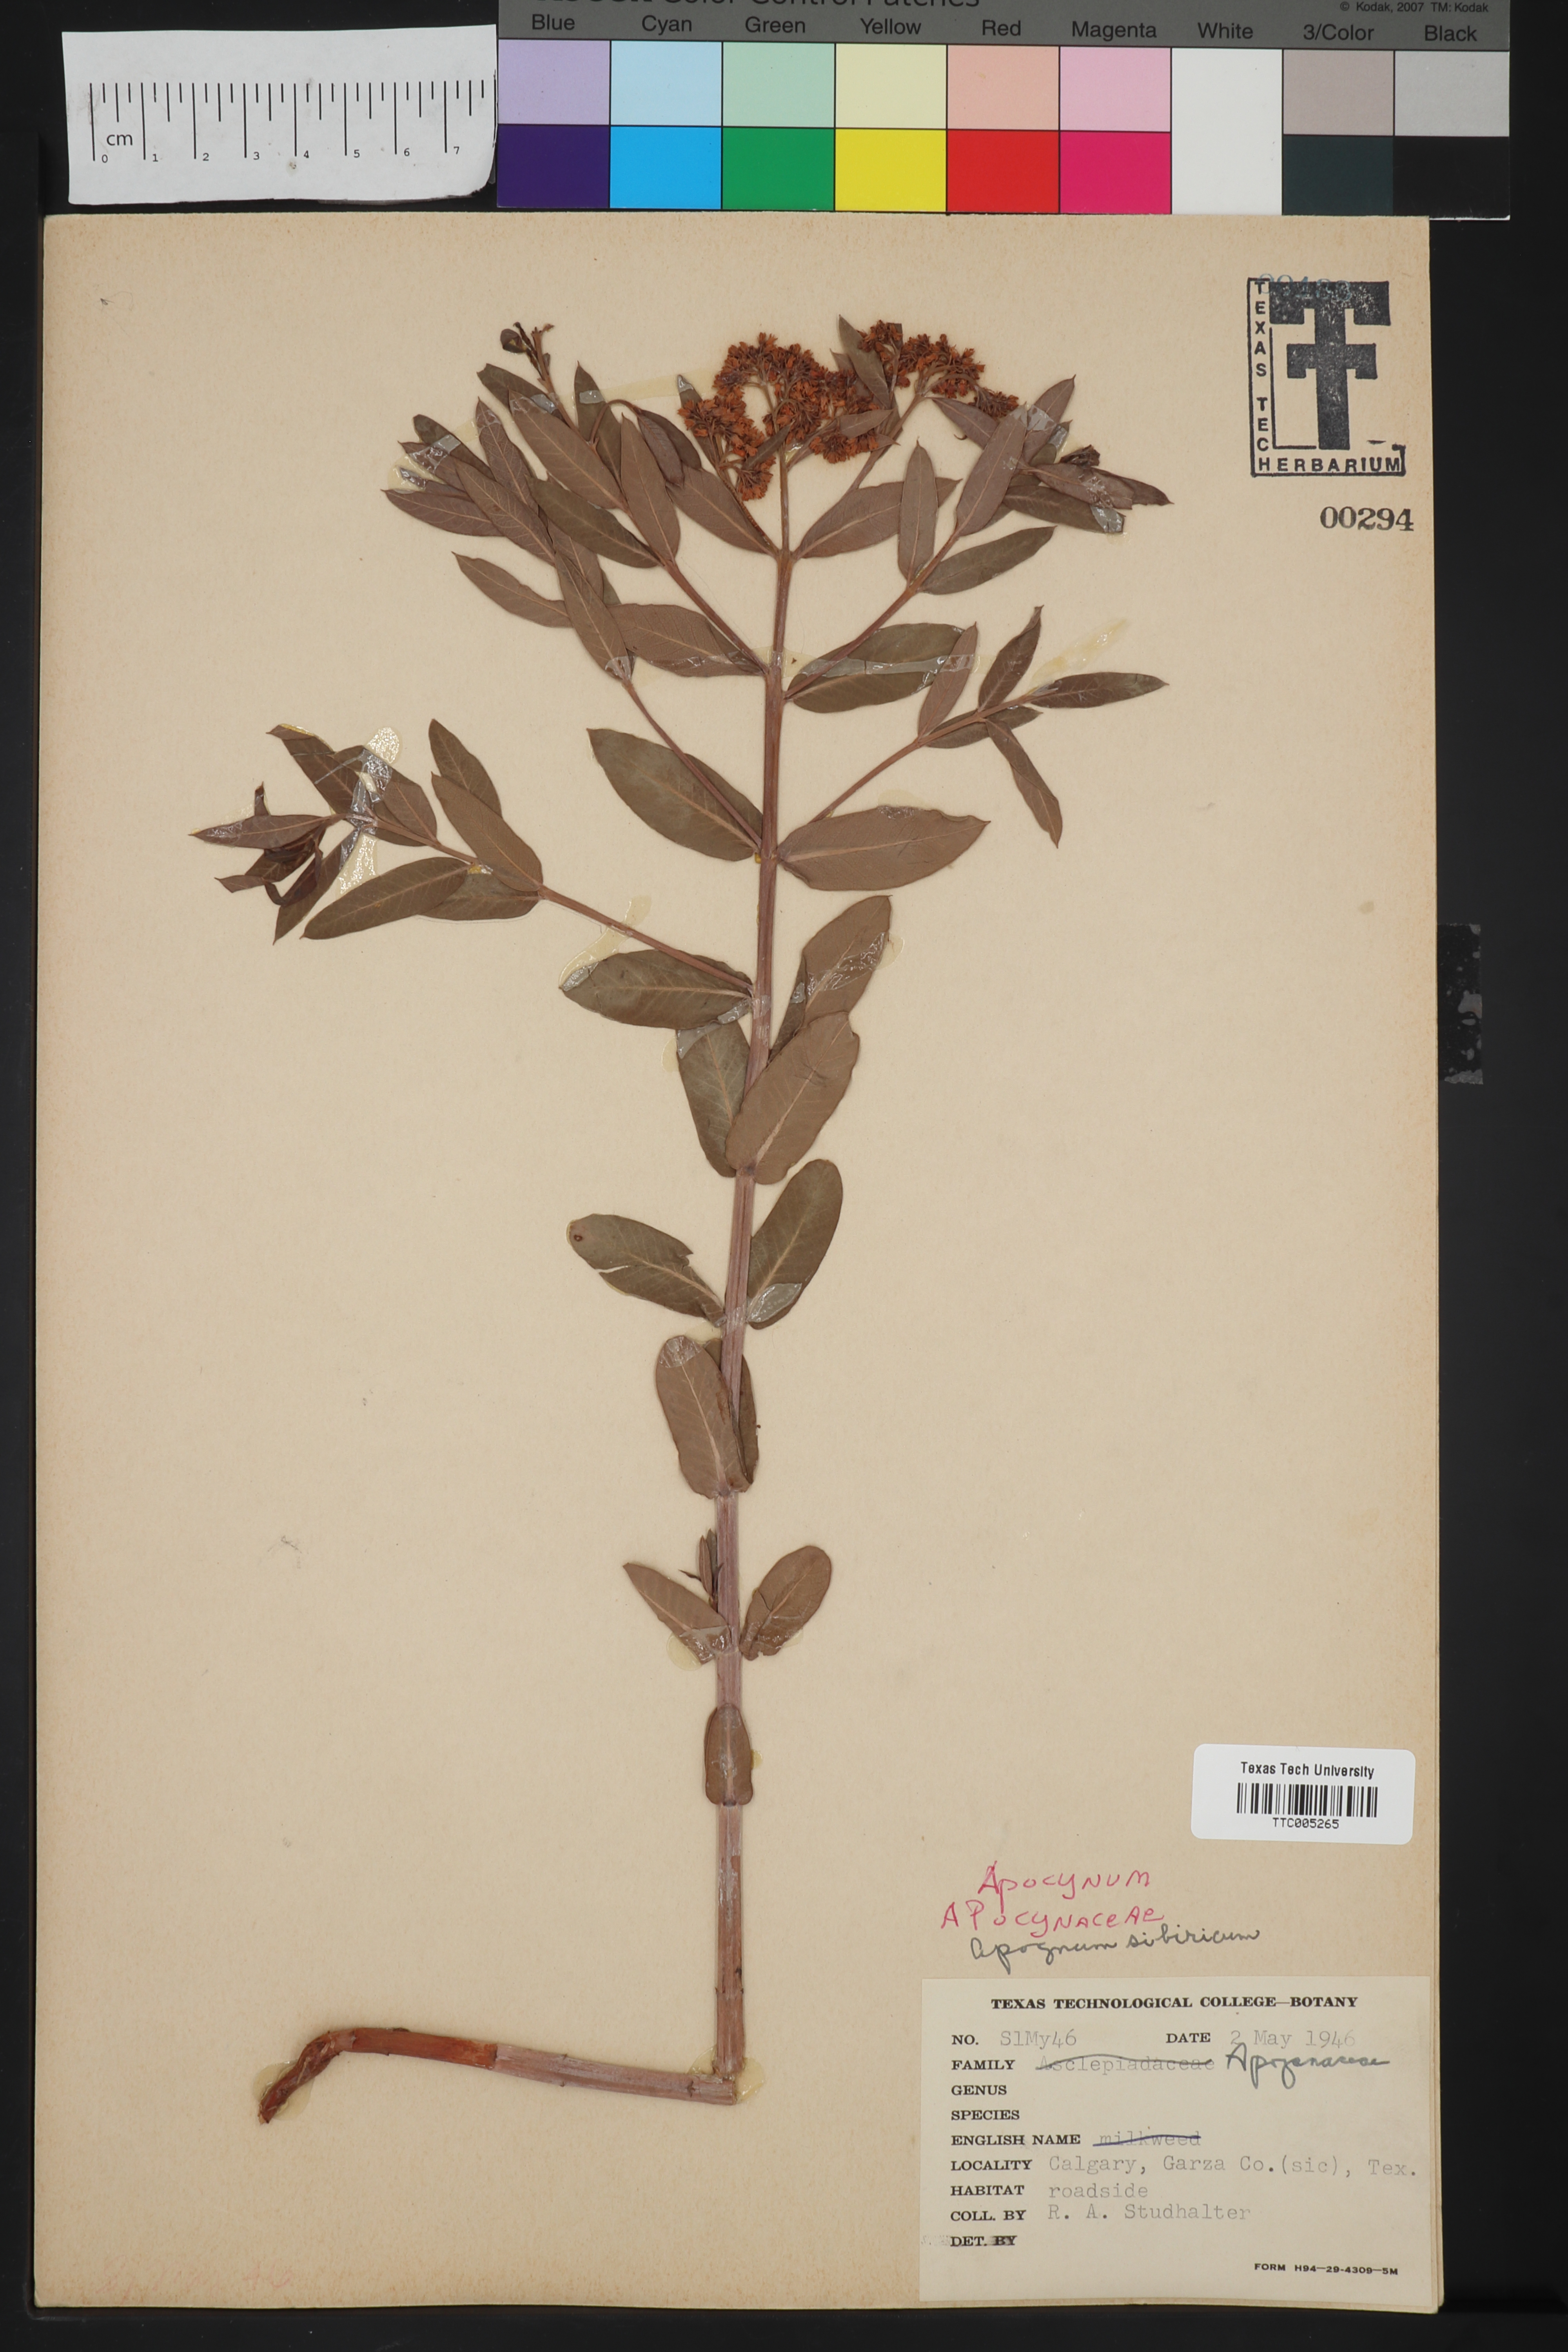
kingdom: Plantae
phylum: Tracheophyta
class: Magnoliopsida
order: Gentianales
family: Apocynaceae
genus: Apocynum
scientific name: Apocynum cannabinum
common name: Hemp dogbane
